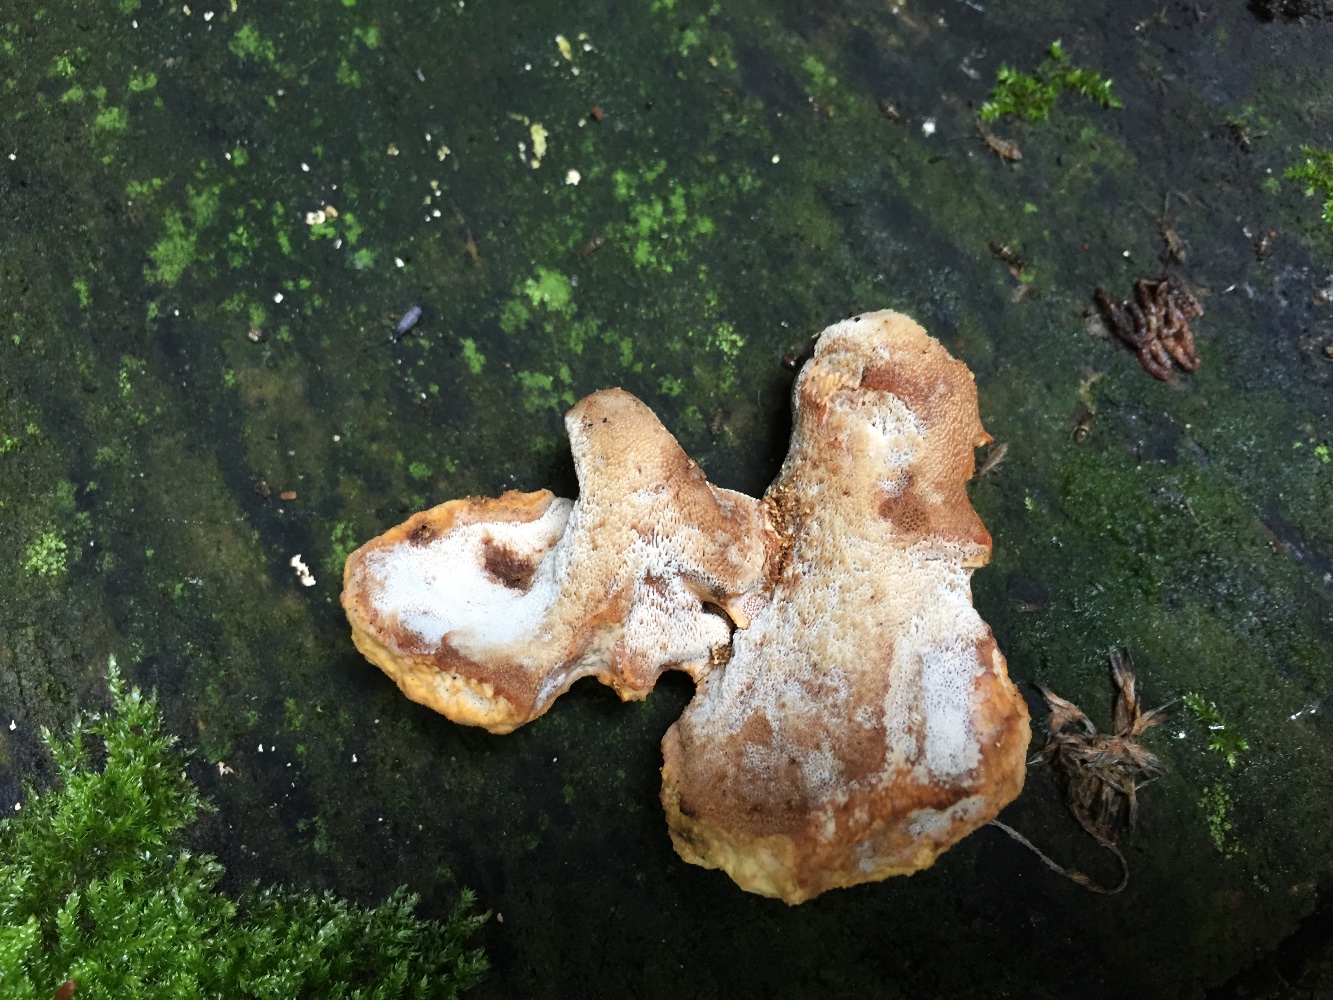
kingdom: Fungi
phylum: Basidiomycota
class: Agaricomycetes
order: Polyporales
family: Polyporaceae
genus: Cerioporus
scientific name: Cerioporus varius
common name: foranderlig stilkporesvamp
